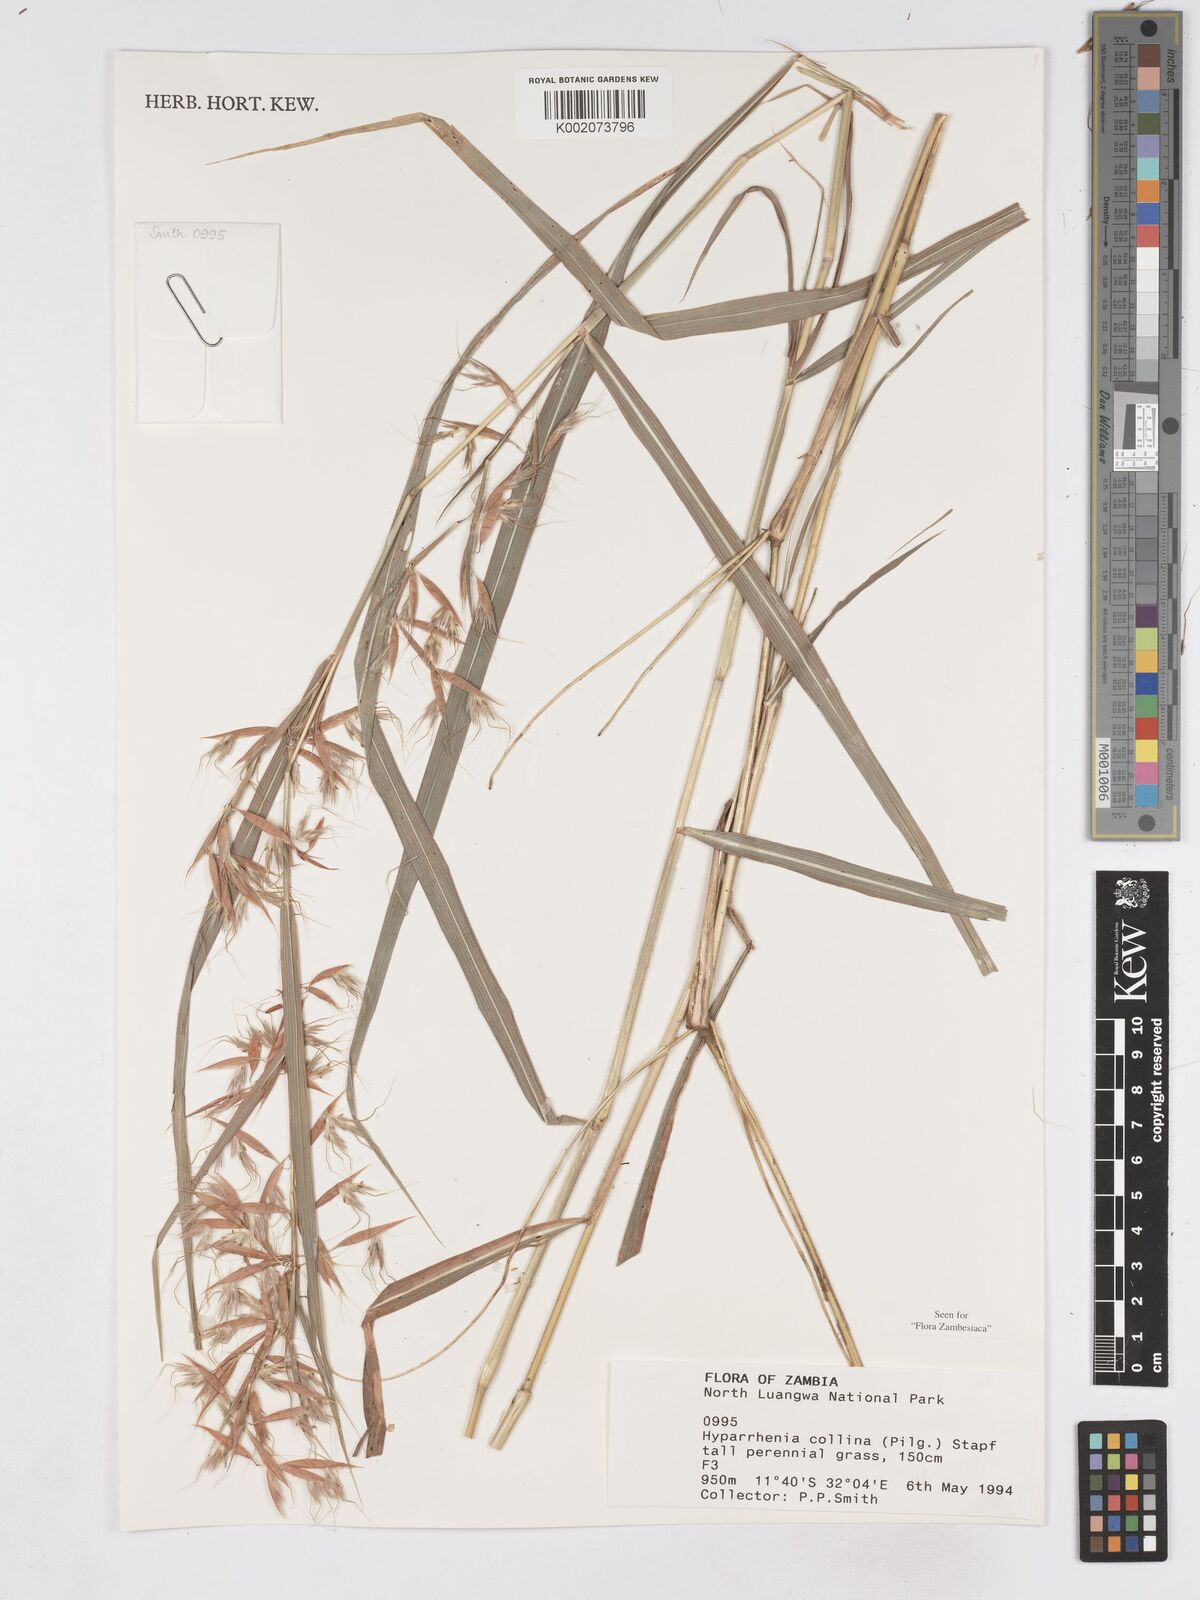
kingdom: Plantae
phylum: Tracheophyta
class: Liliopsida
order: Poales
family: Poaceae
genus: Hyparrhenia
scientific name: Hyparrhenia collina
